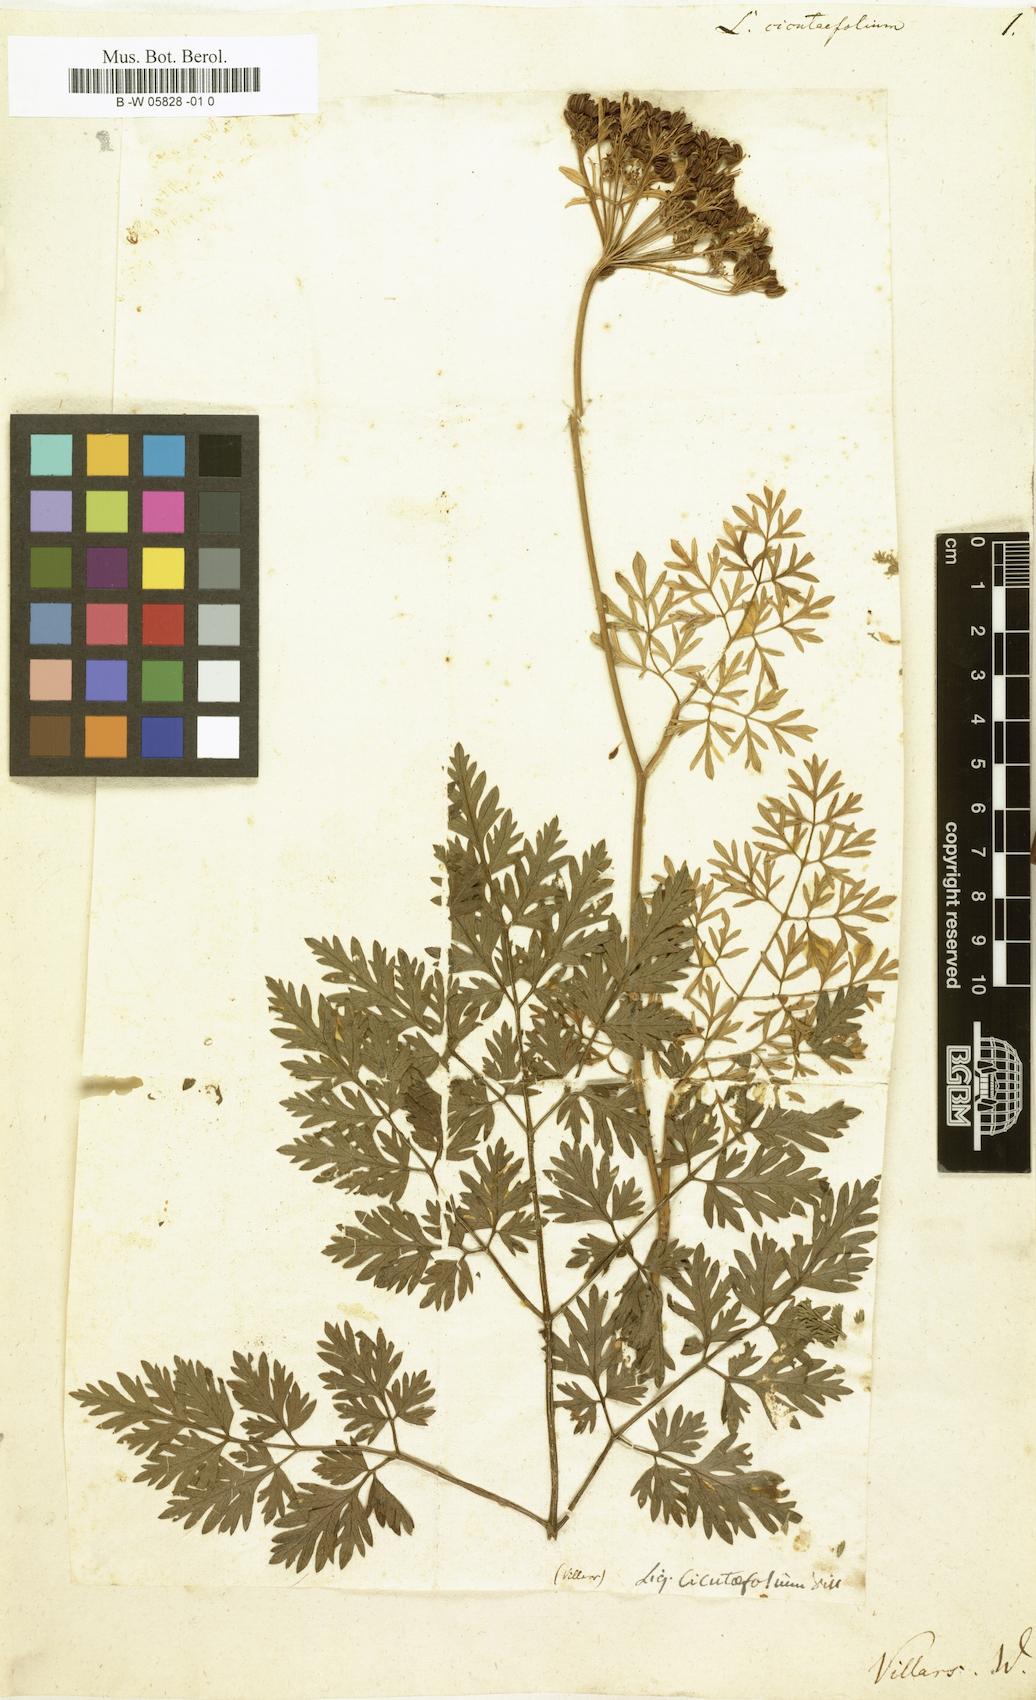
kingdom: Plantae
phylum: Tracheophyta
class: Magnoliopsida
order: Apiales
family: Apiaceae
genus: Carum
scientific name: Carum appuanum
